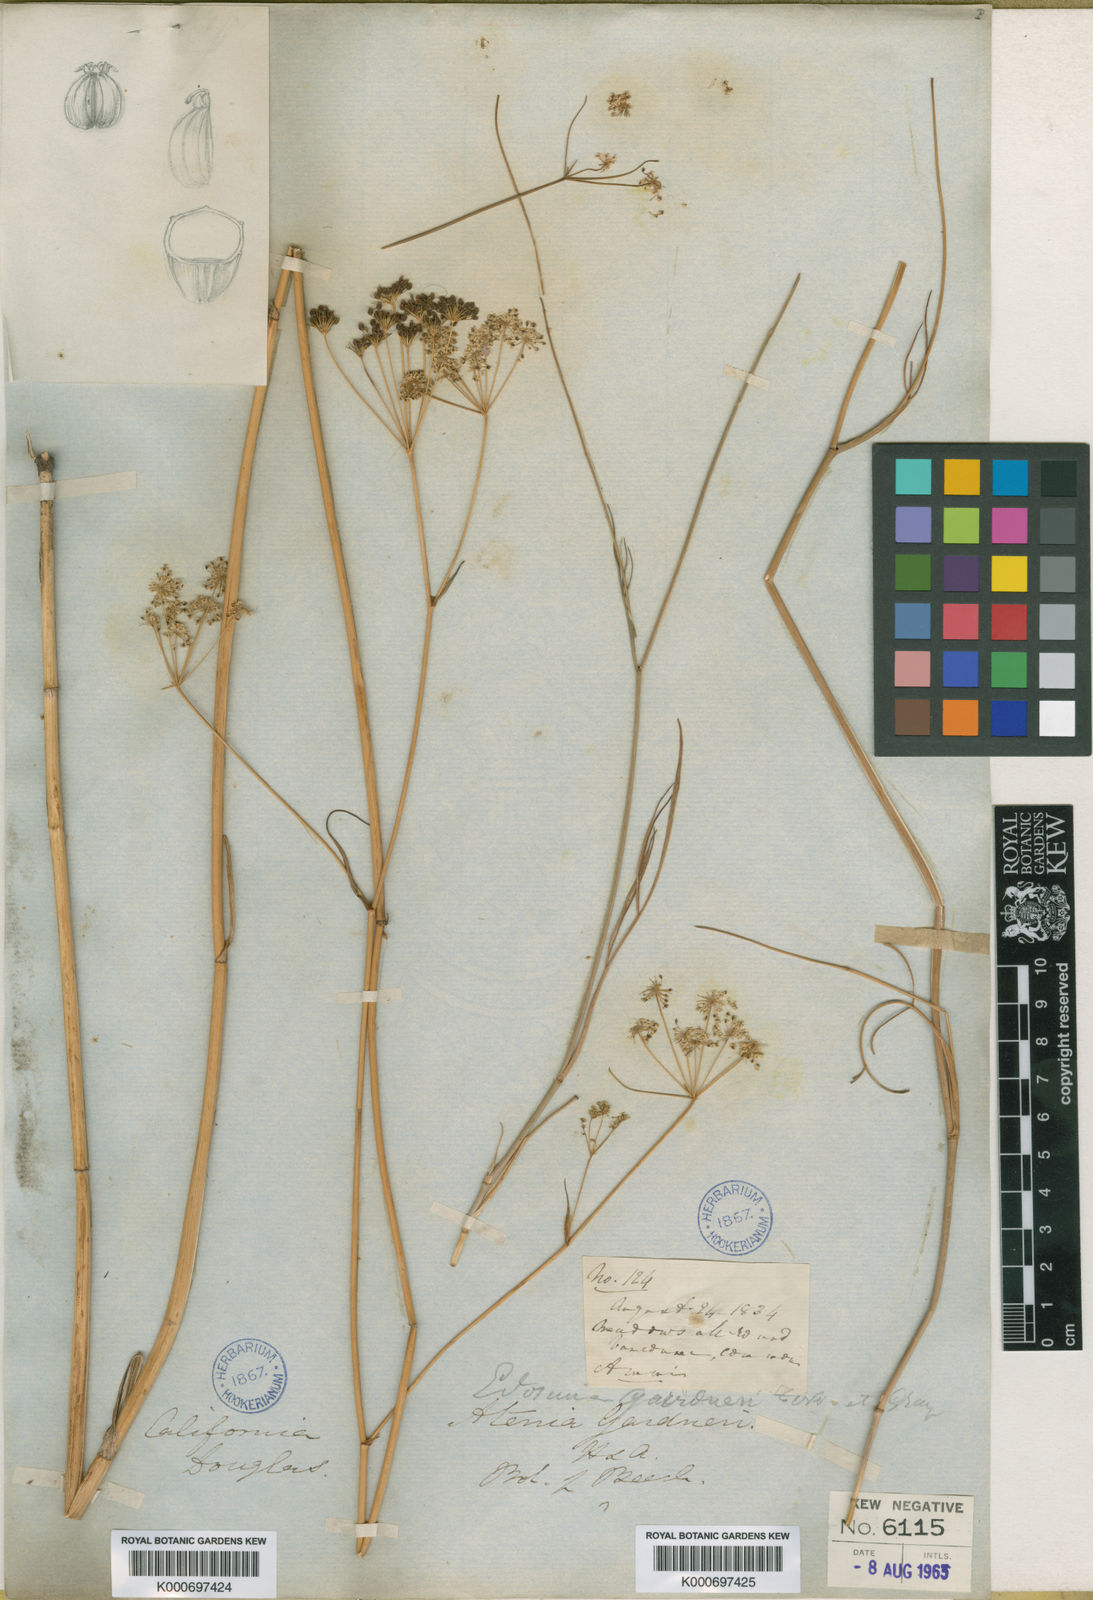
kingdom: Plantae
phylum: Tracheophyta
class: Magnoliopsida
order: Apiales
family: Apiaceae
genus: Perideridia
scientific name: Perideridia gairdneri
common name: False caraway
